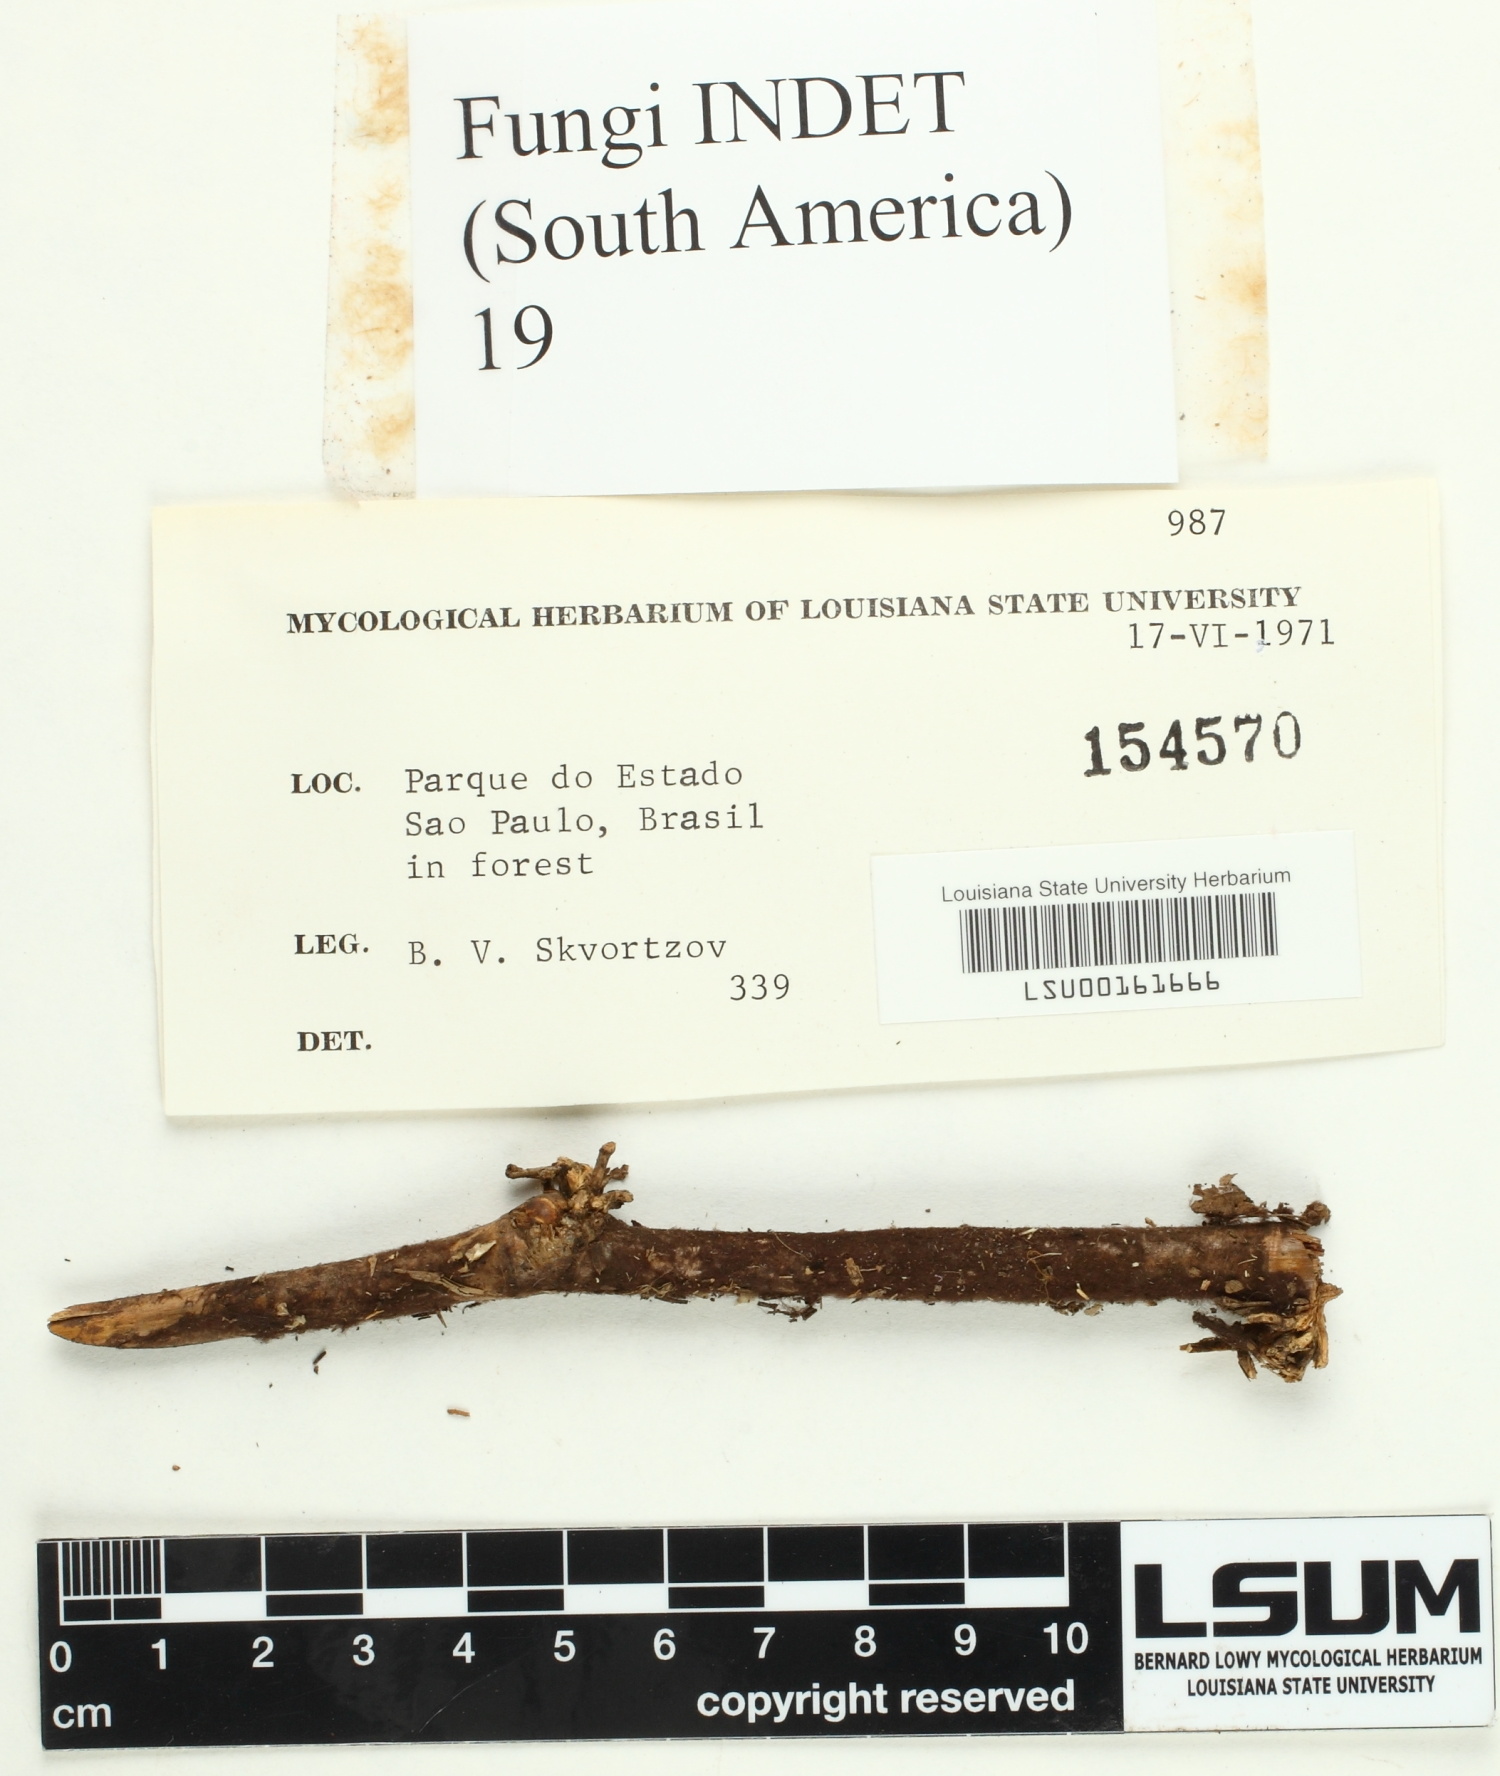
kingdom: Fungi
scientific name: Fungi
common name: Fungi
